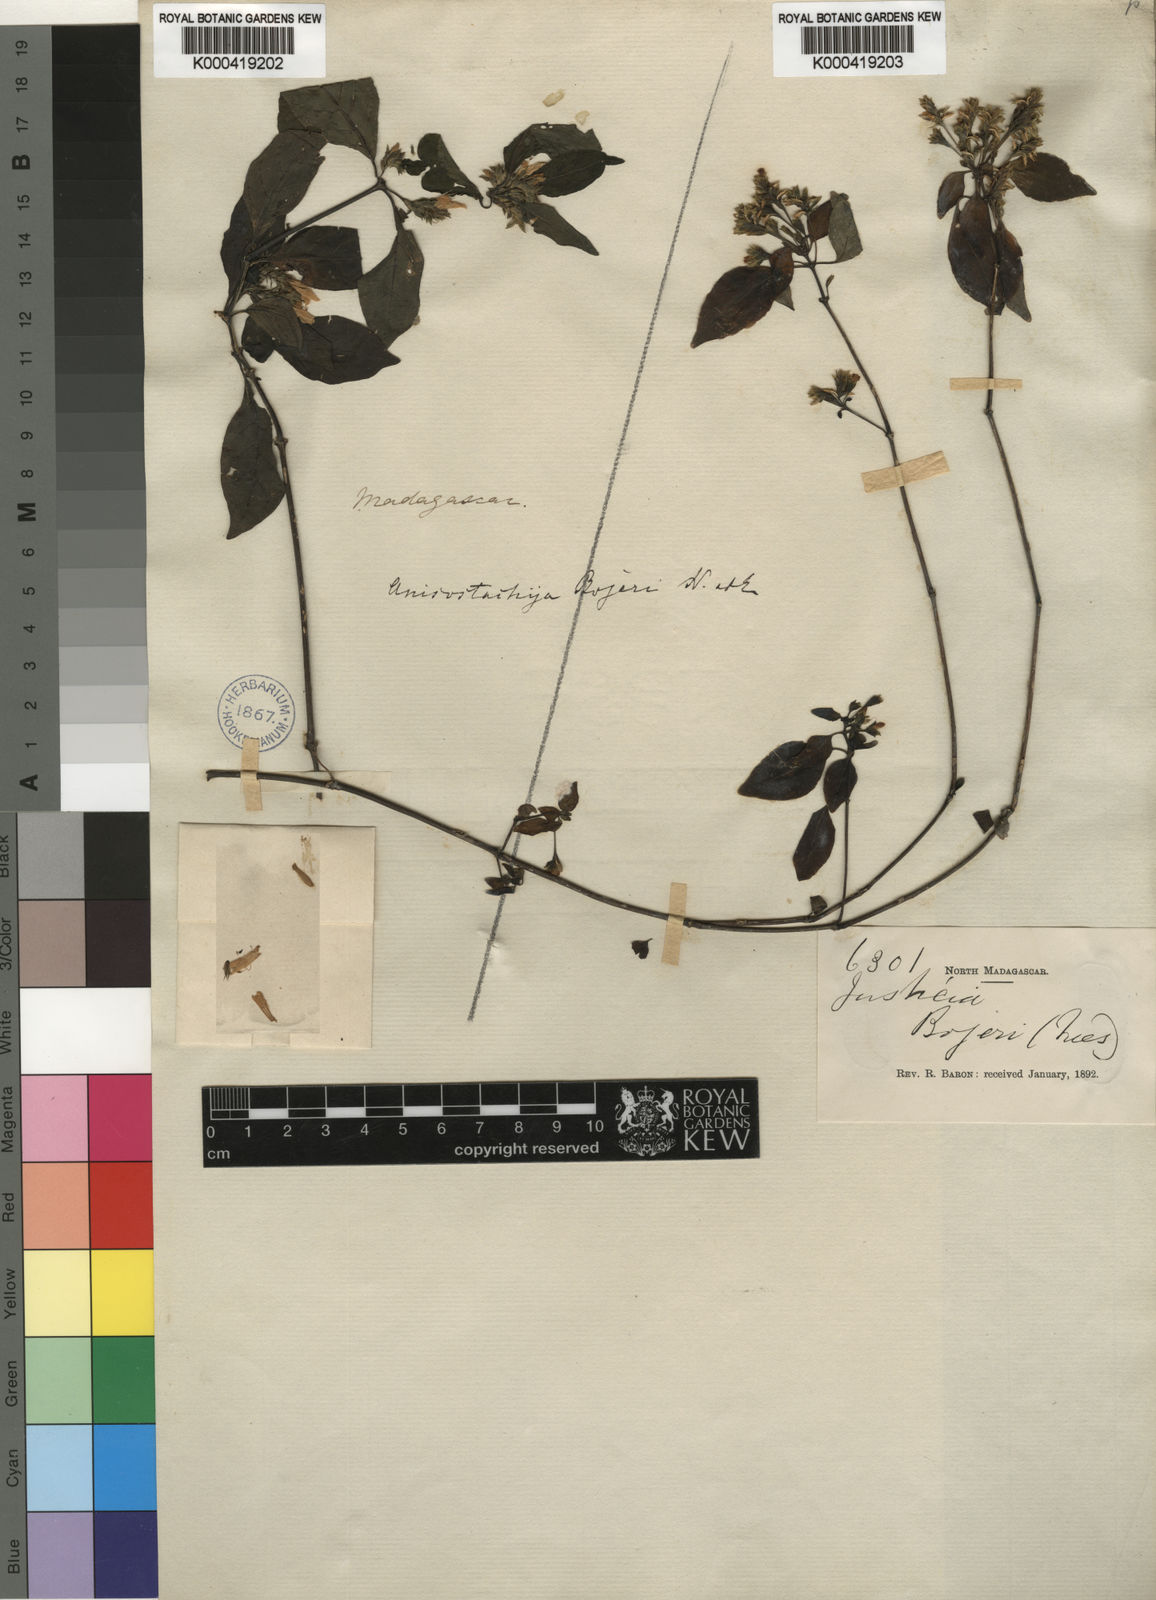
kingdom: Plantae
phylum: Tracheophyta
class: Magnoliopsida
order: Lamiales
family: Acanthaceae
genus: Anisostachya
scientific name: Anisostachya bojeri
